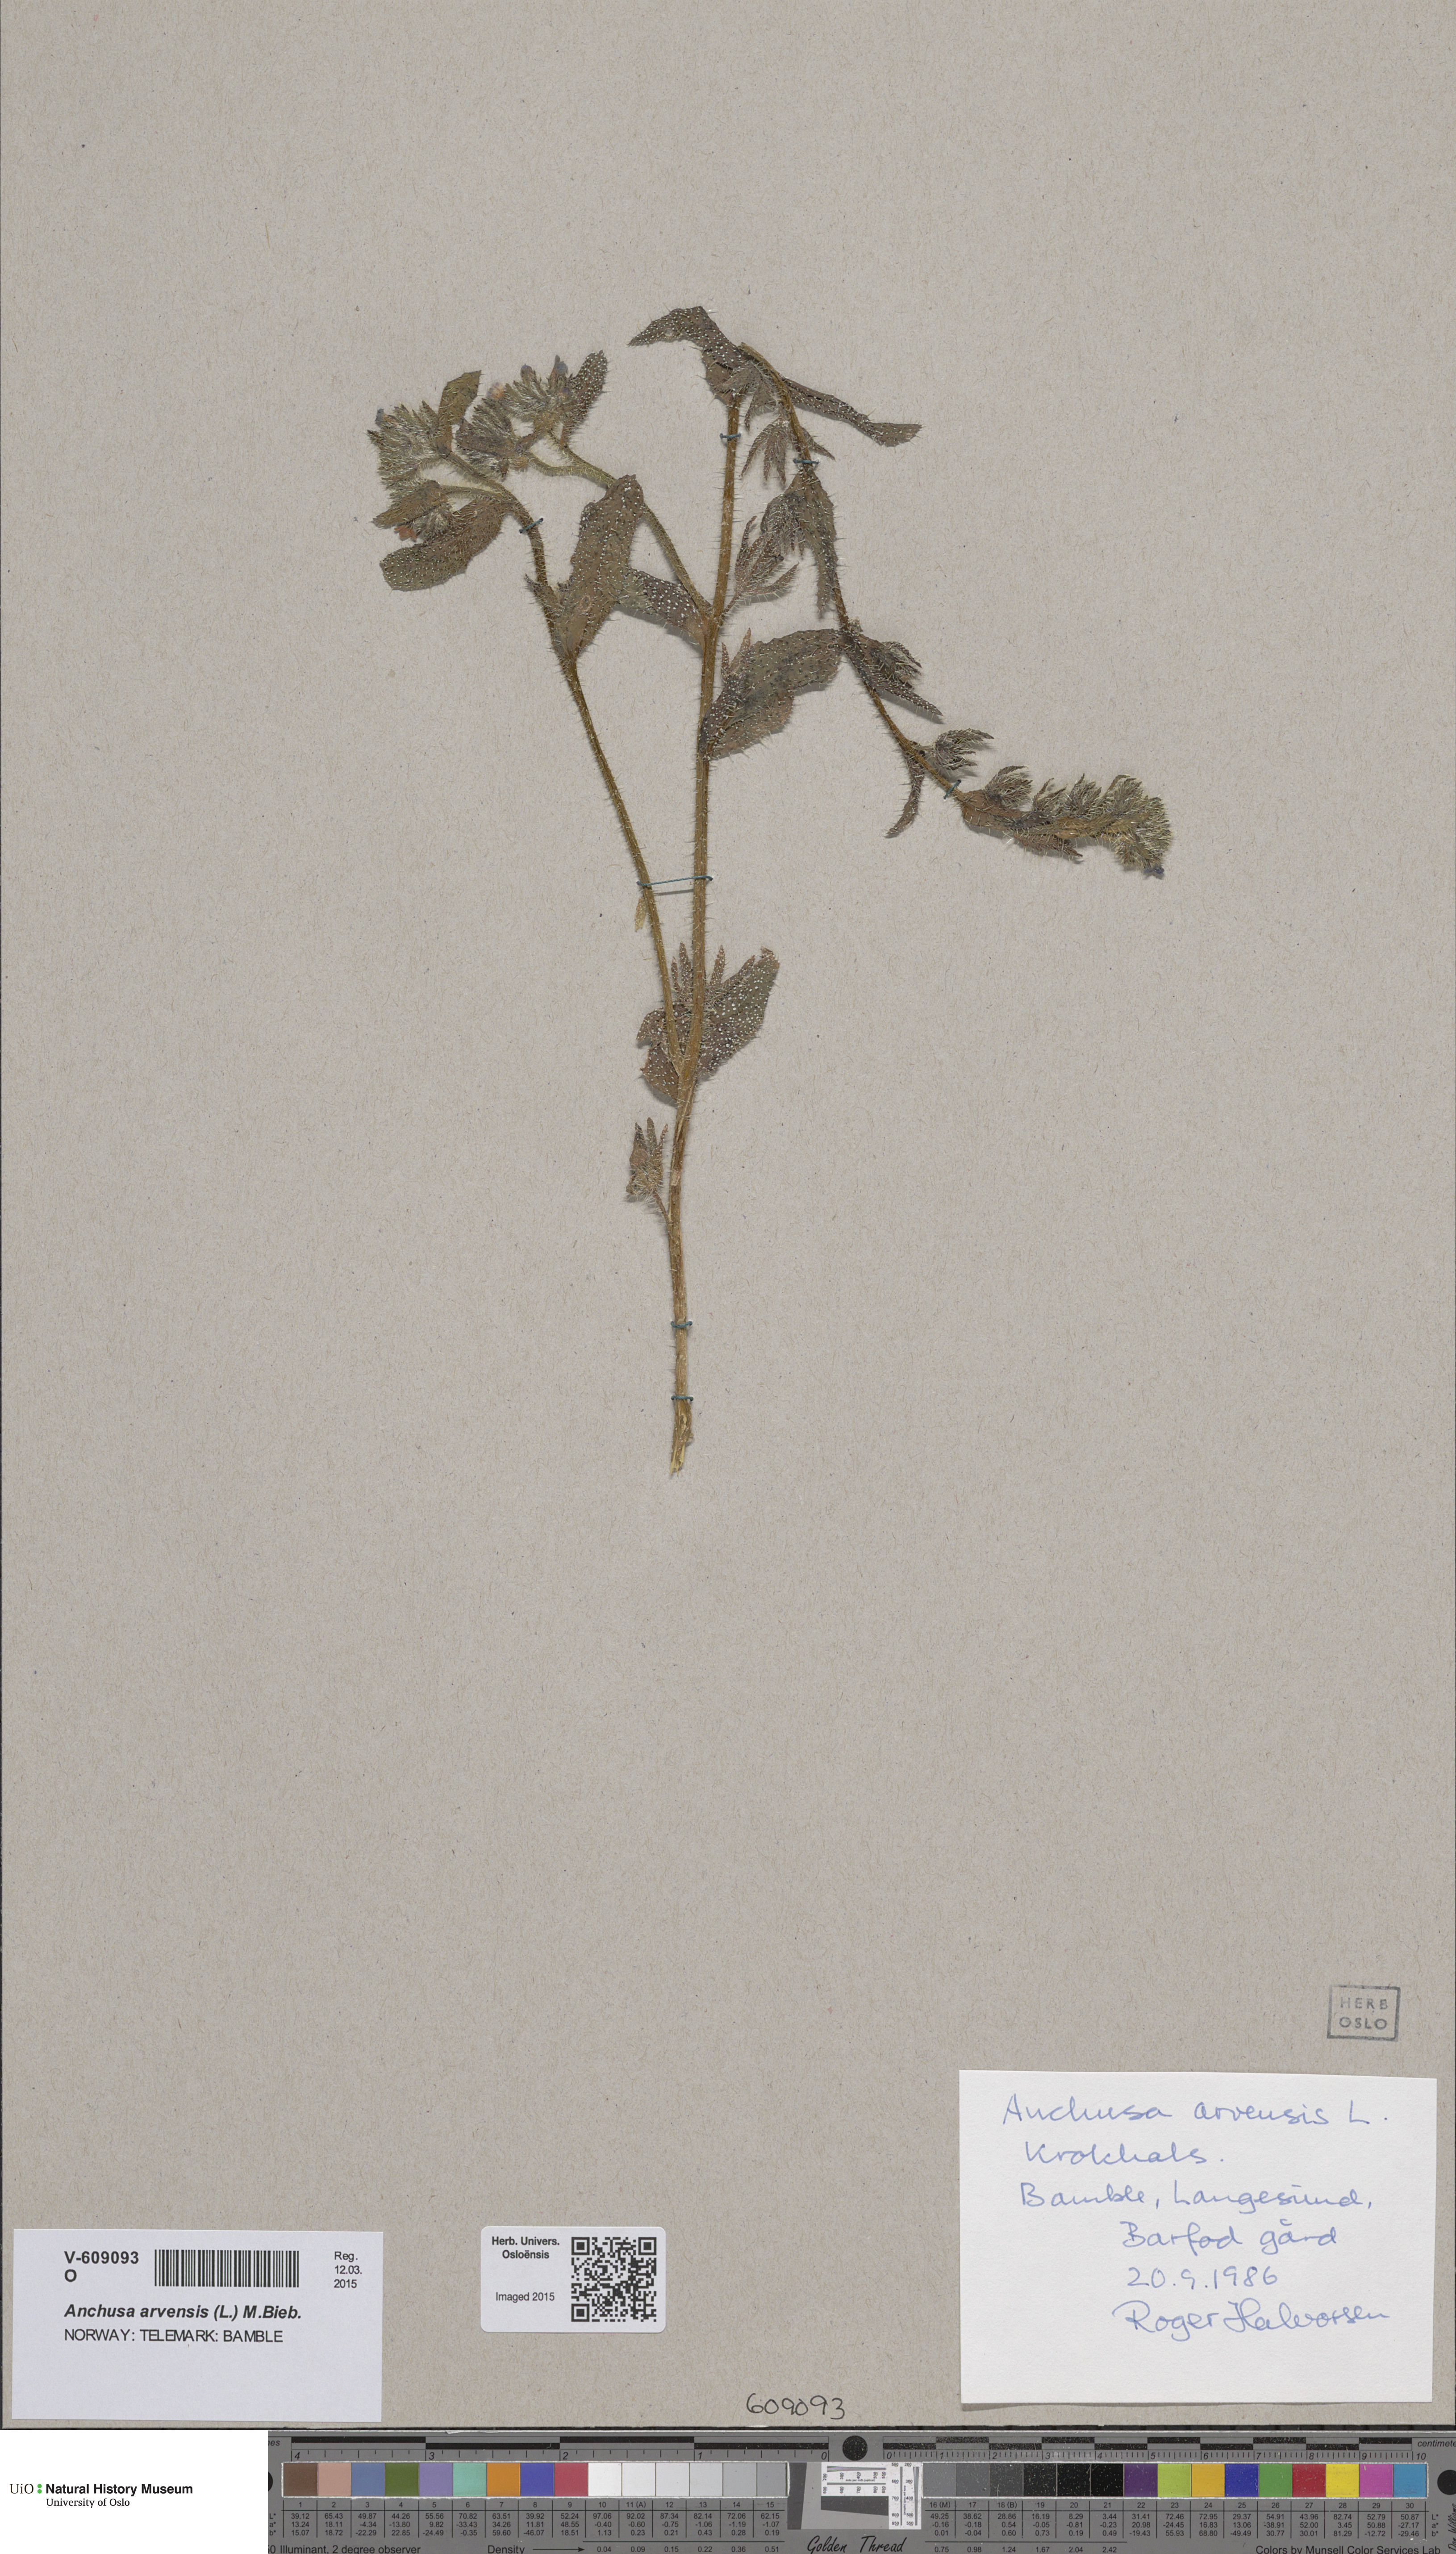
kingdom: Plantae
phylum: Tracheophyta
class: Magnoliopsida
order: Boraginales
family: Boraginaceae
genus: Lycopsis
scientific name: Lycopsis arvensis
